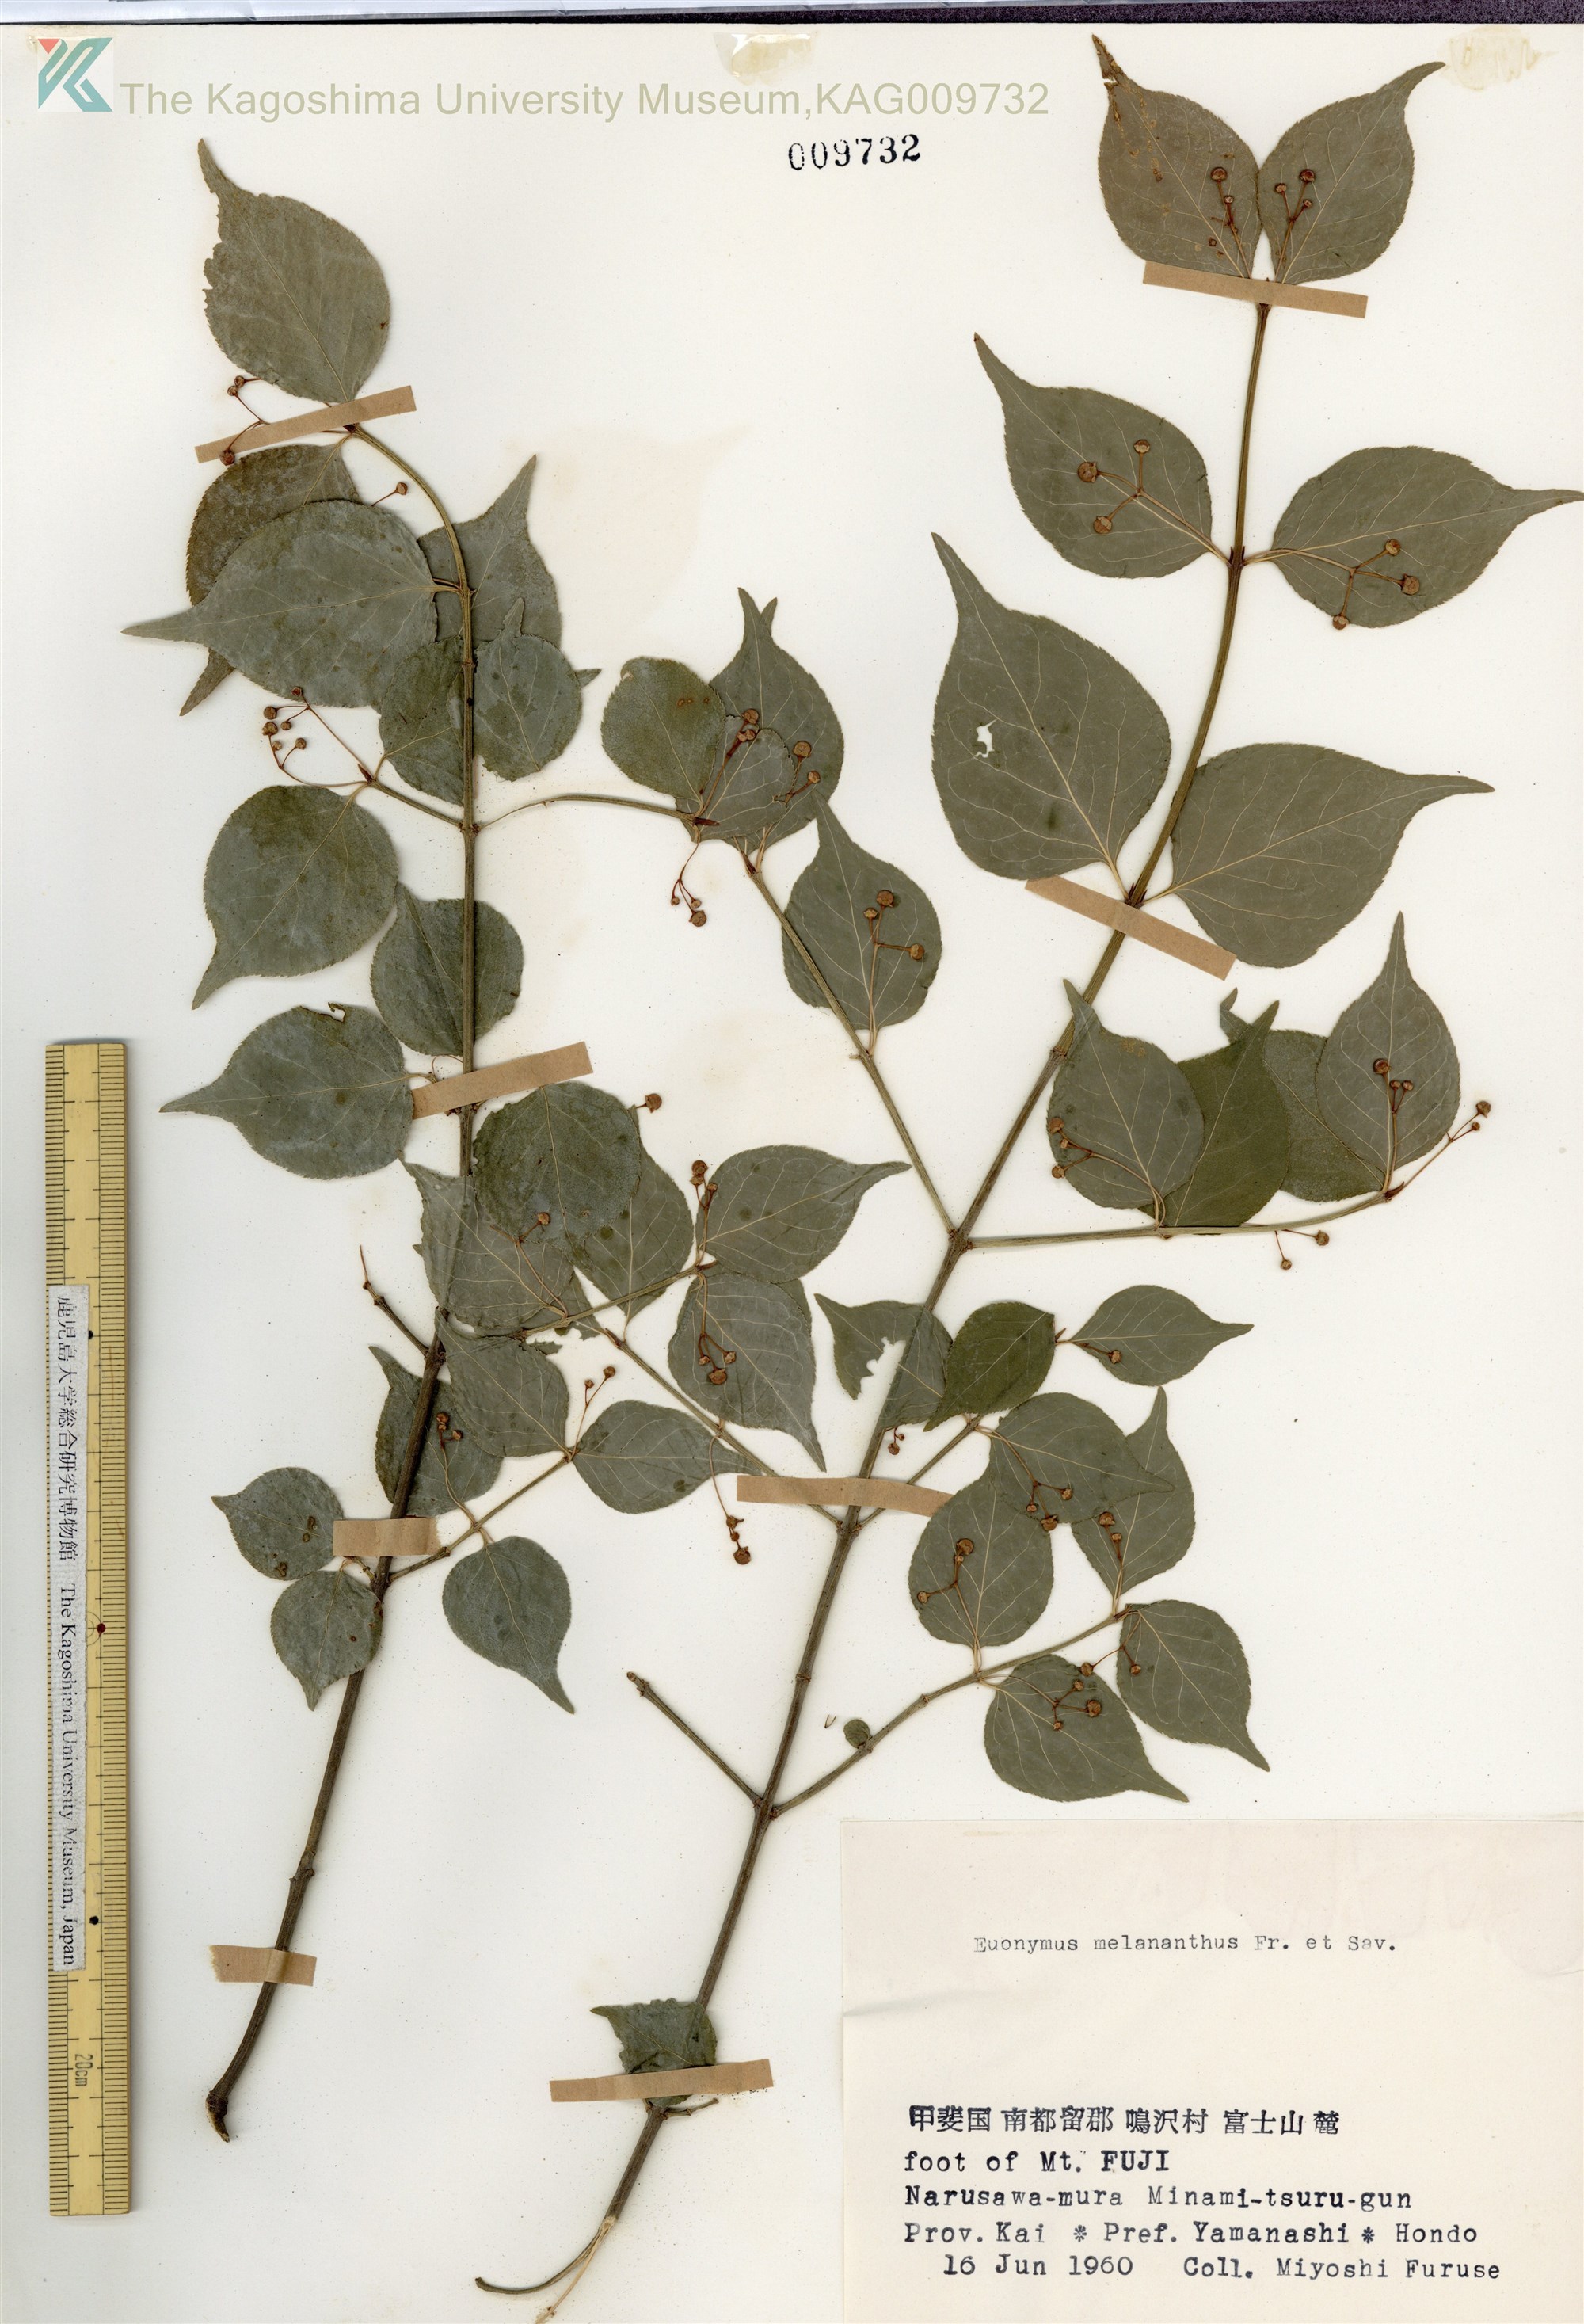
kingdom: Plantae
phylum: Tracheophyta
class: Magnoliopsida
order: Celastrales
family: Celastraceae
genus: Euonymus
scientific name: Euonymus melananthus
